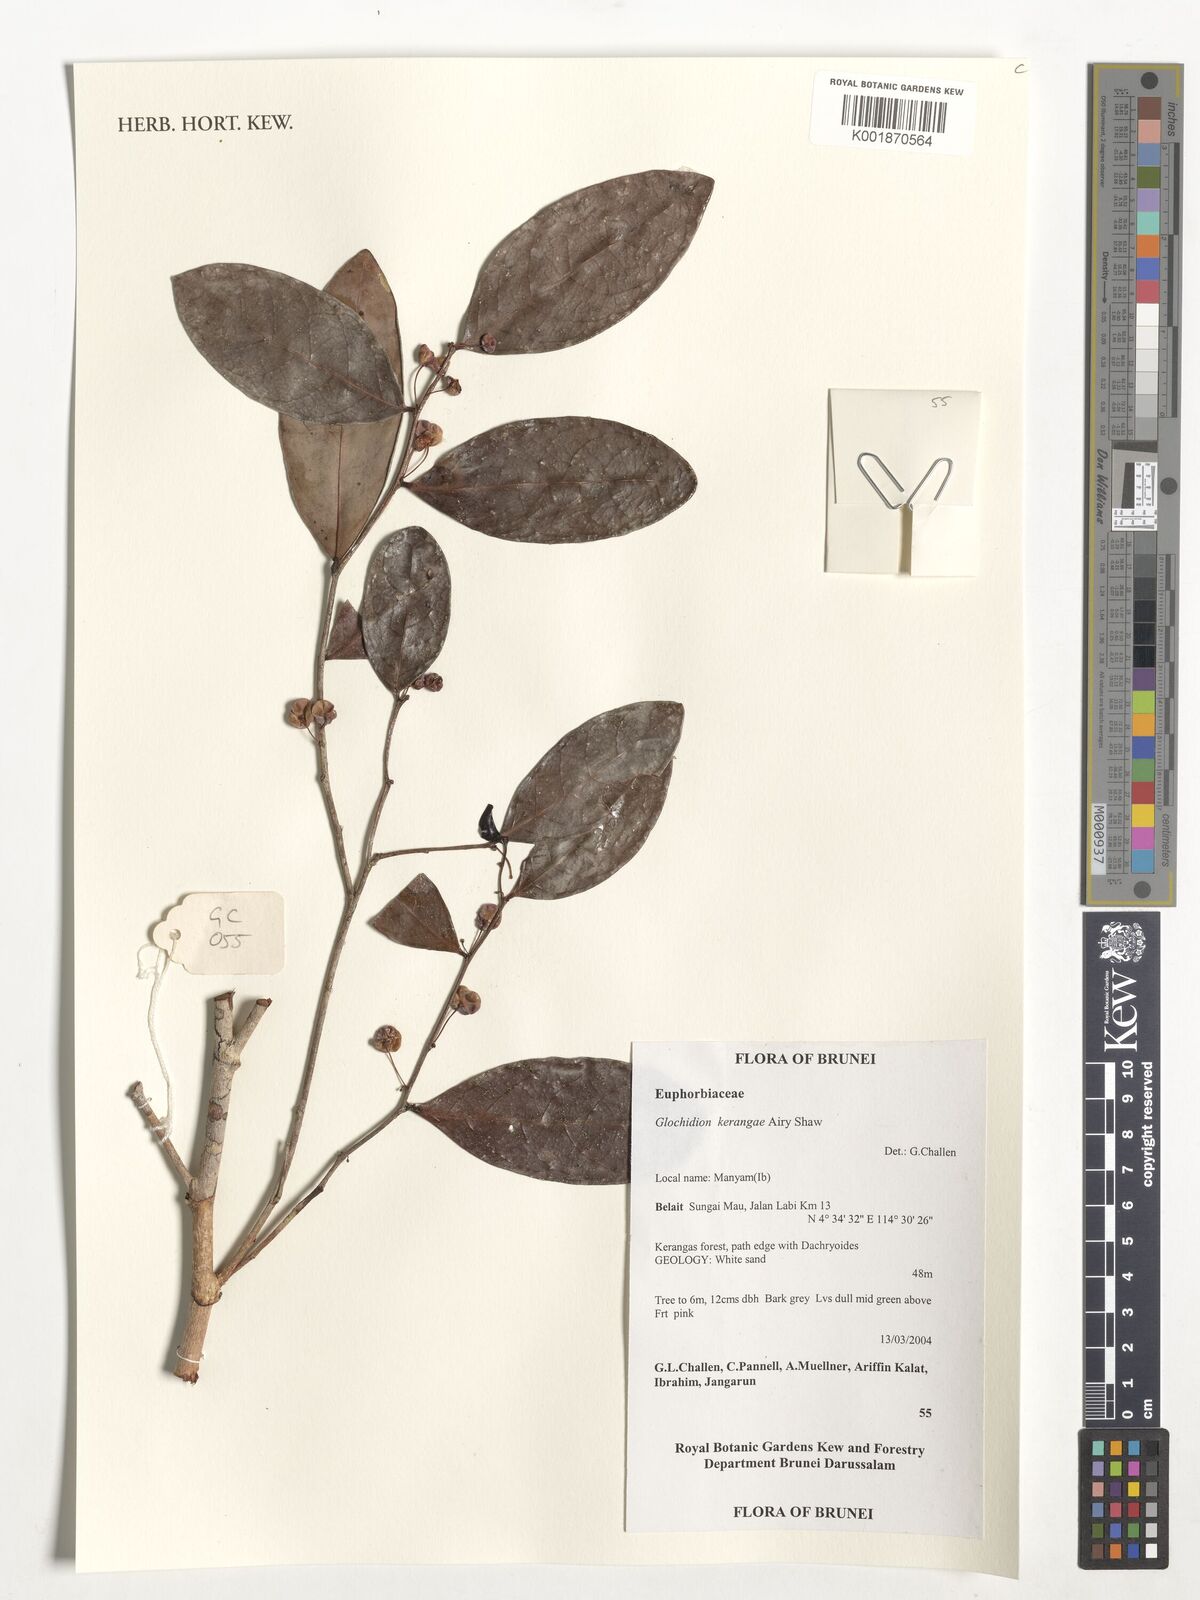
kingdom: Plantae
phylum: Tracheophyta
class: Magnoliopsida
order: Malpighiales
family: Phyllanthaceae
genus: Glochidion
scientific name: Glochidion kerangae
